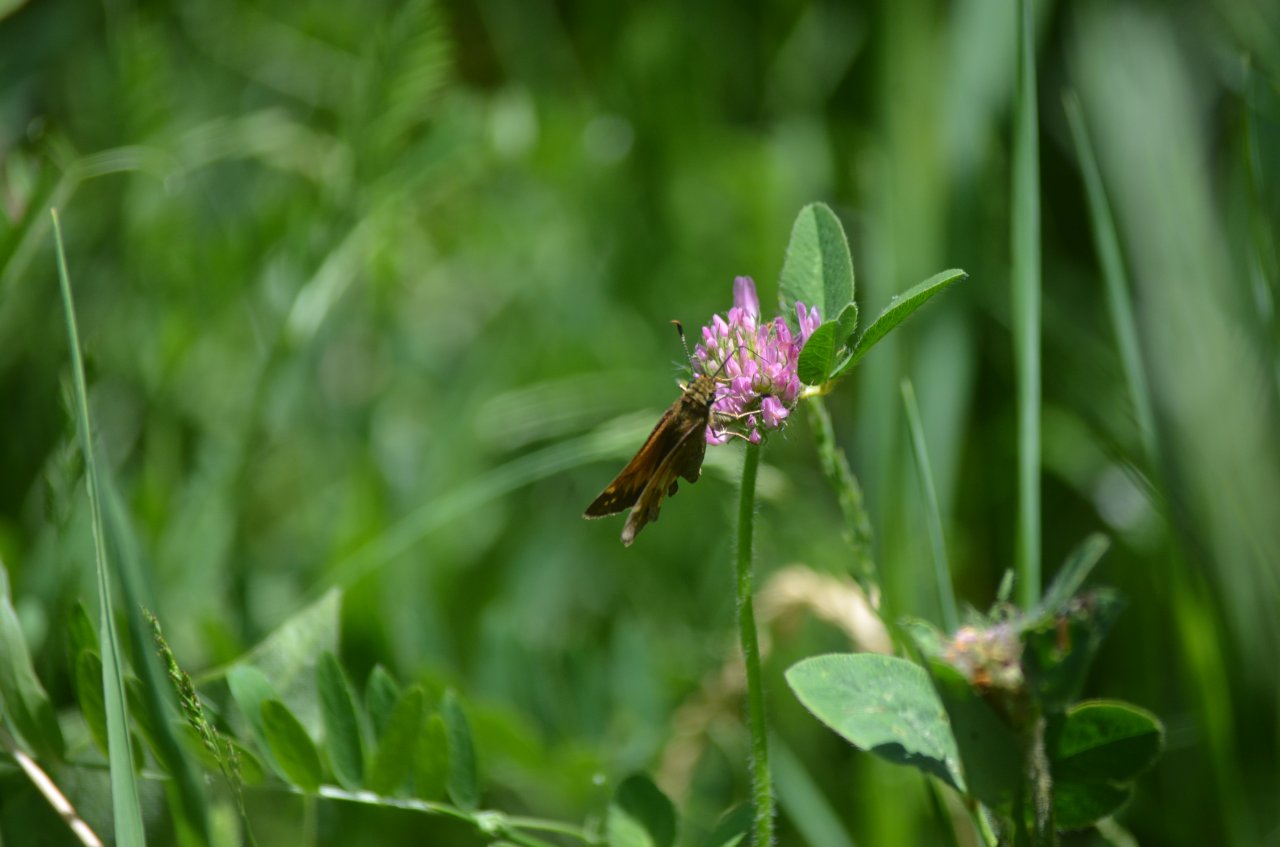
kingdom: Animalia
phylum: Arthropoda
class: Insecta
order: Lepidoptera
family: Hesperiidae
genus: Lon
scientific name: Lon hobomok
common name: Hobomok Skipper
